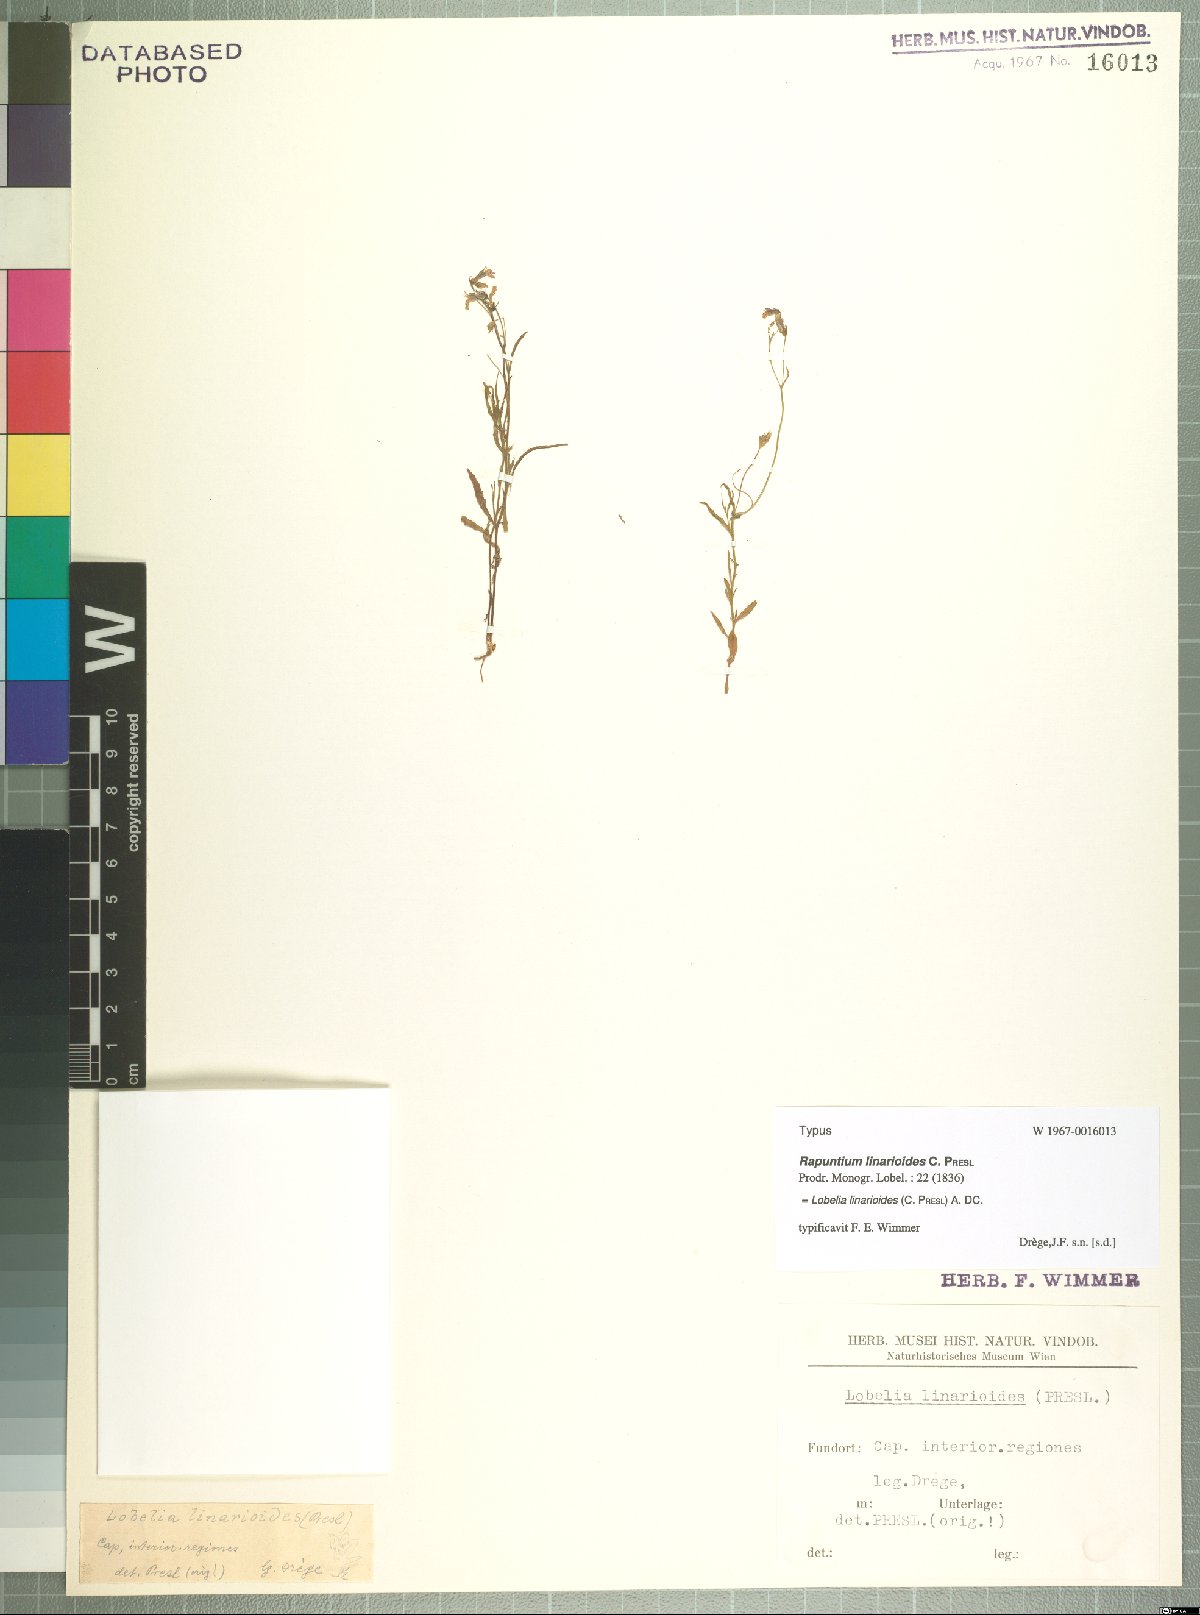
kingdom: Plantae
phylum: Tracheophyta
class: Magnoliopsida
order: Asterales
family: Campanulaceae
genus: Lobelia
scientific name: Lobelia linarioides
